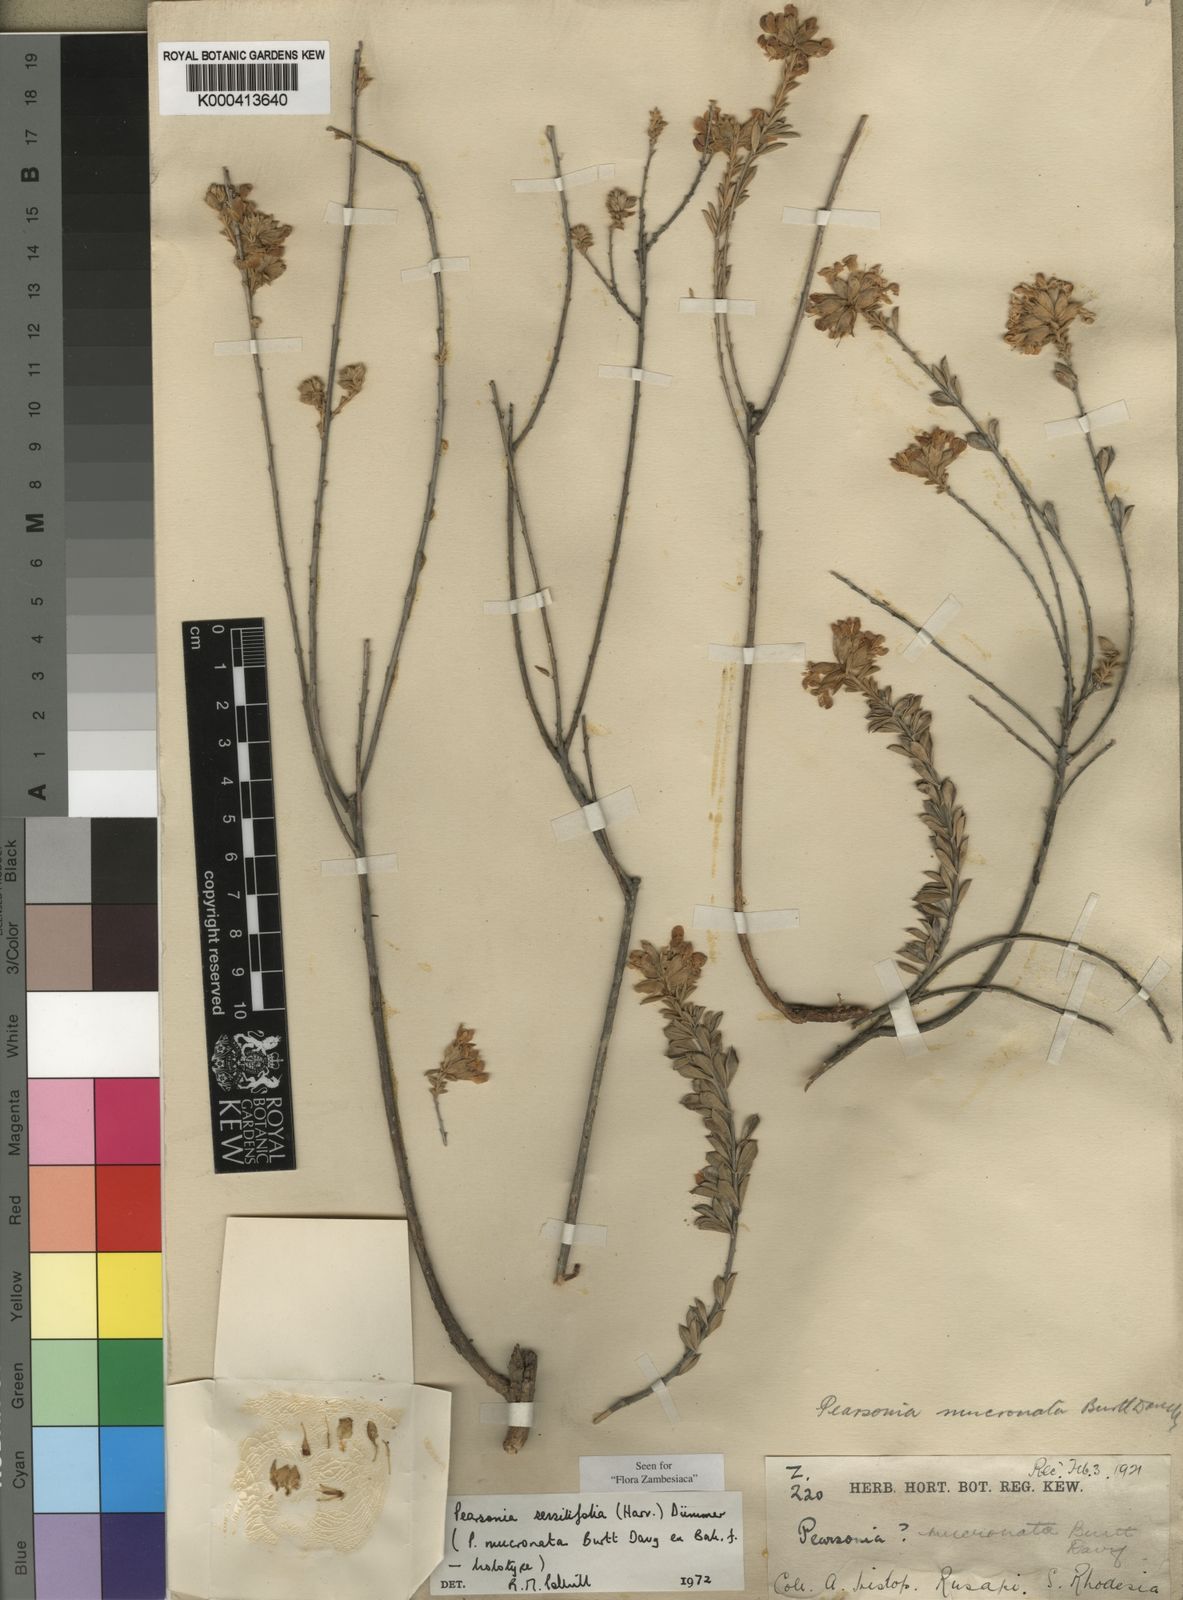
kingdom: Plantae
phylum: Tracheophyta
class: Magnoliopsida
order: Fabales
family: Fabaceae
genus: Pearsonia
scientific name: Pearsonia sessilifolia
